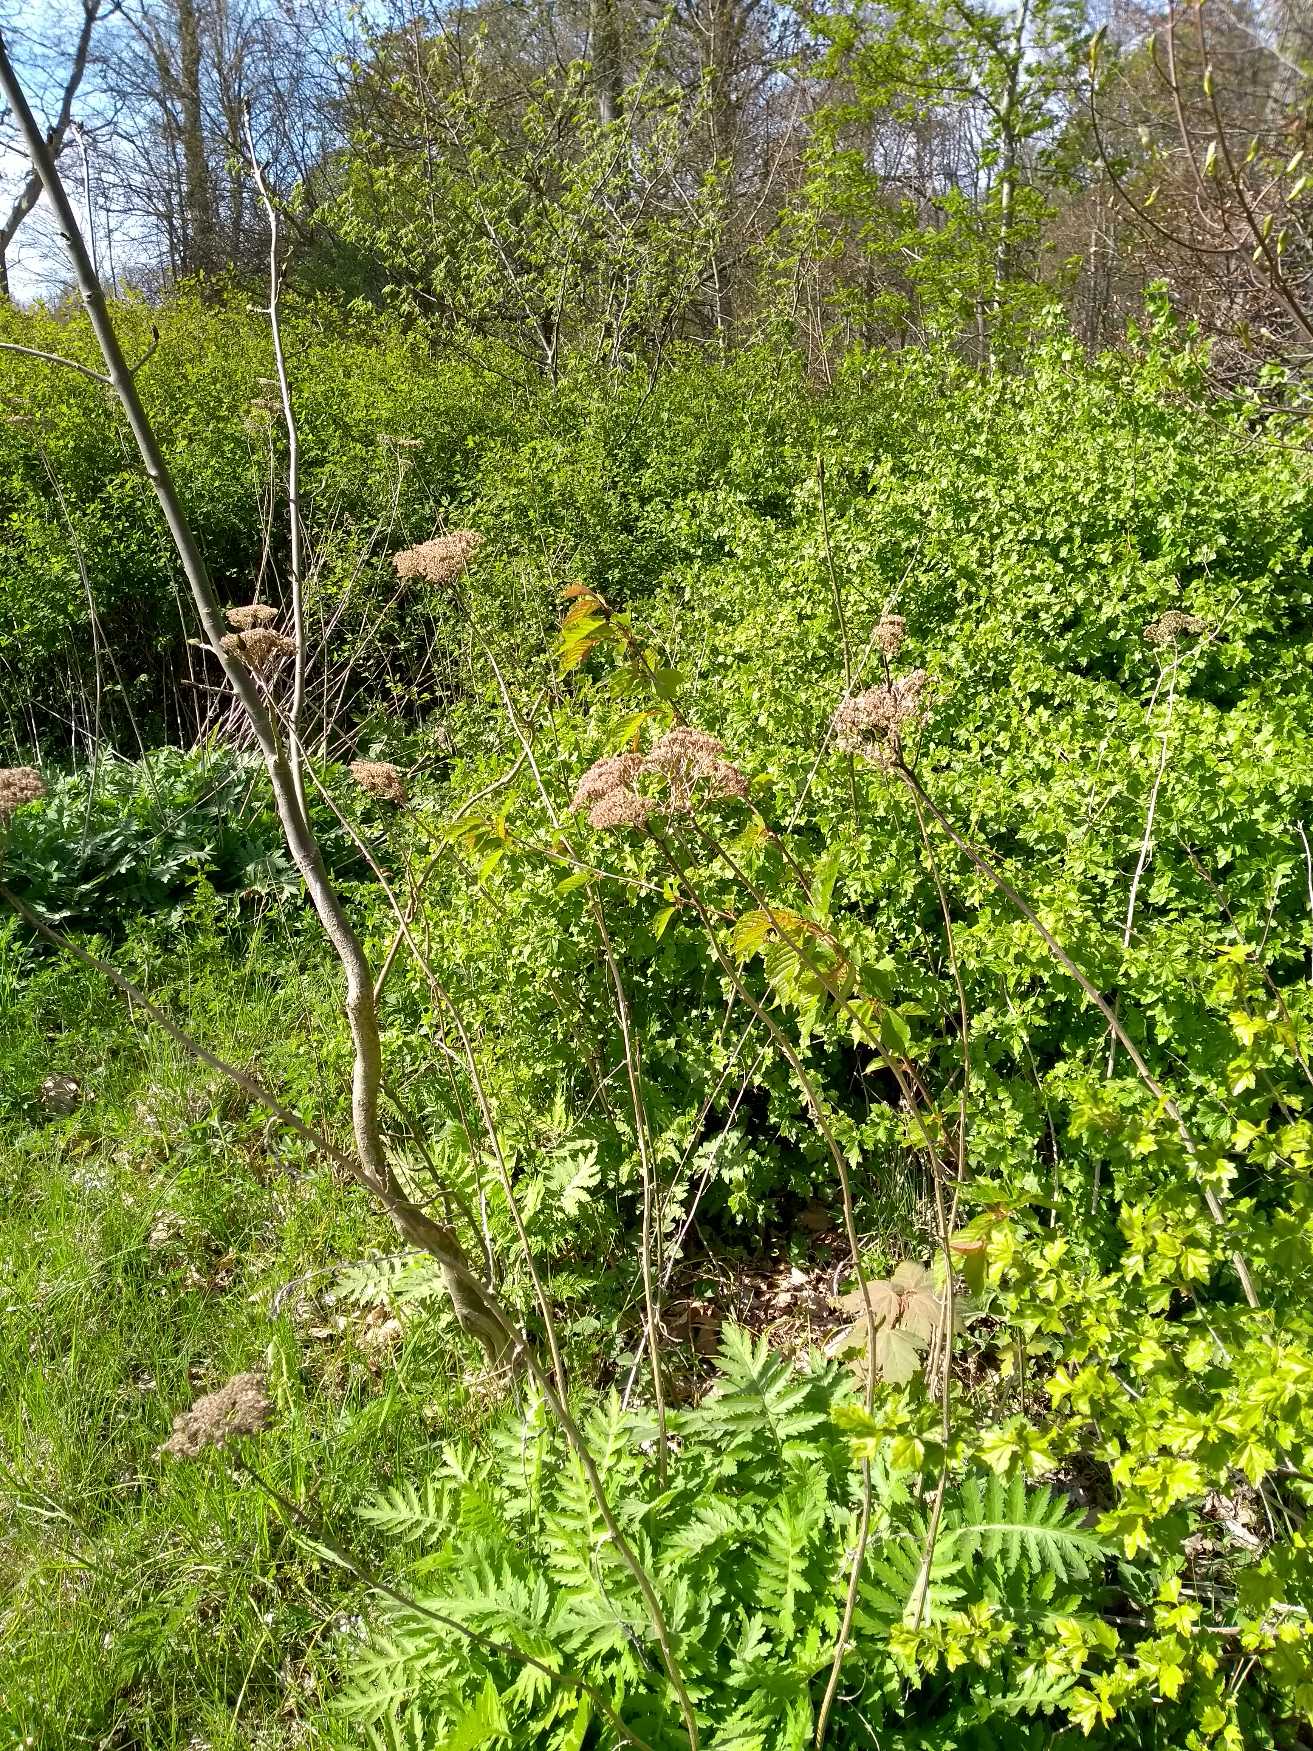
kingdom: Plantae
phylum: Tracheophyta
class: Magnoliopsida
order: Asterales
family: Asteraceae
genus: Tanacetum
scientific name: Tanacetum macrophyllum
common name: Røllike-matrem
